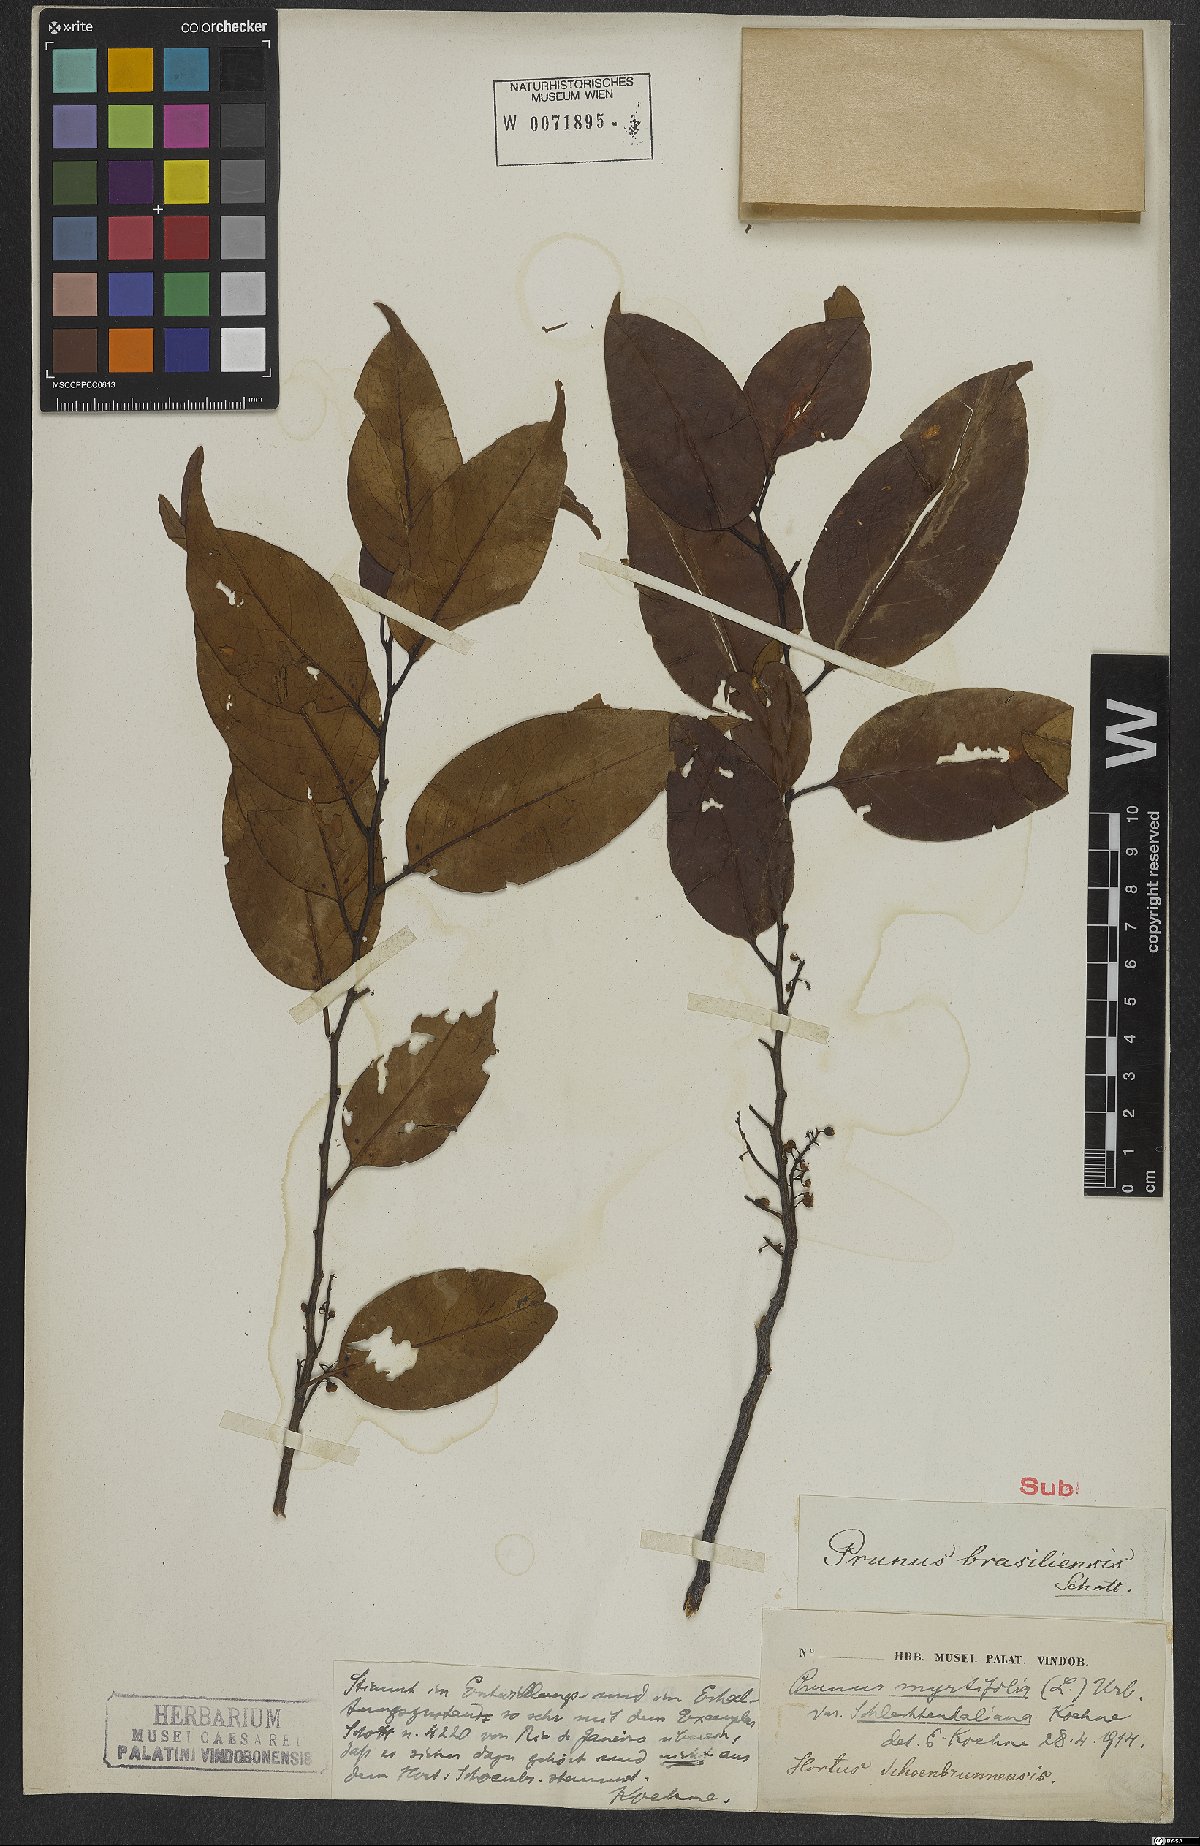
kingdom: Plantae
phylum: Tracheophyta
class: Magnoliopsida
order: Rosales
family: Rosaceae
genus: Prunus
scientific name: Prunus myrtifolia
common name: West indies cherry
